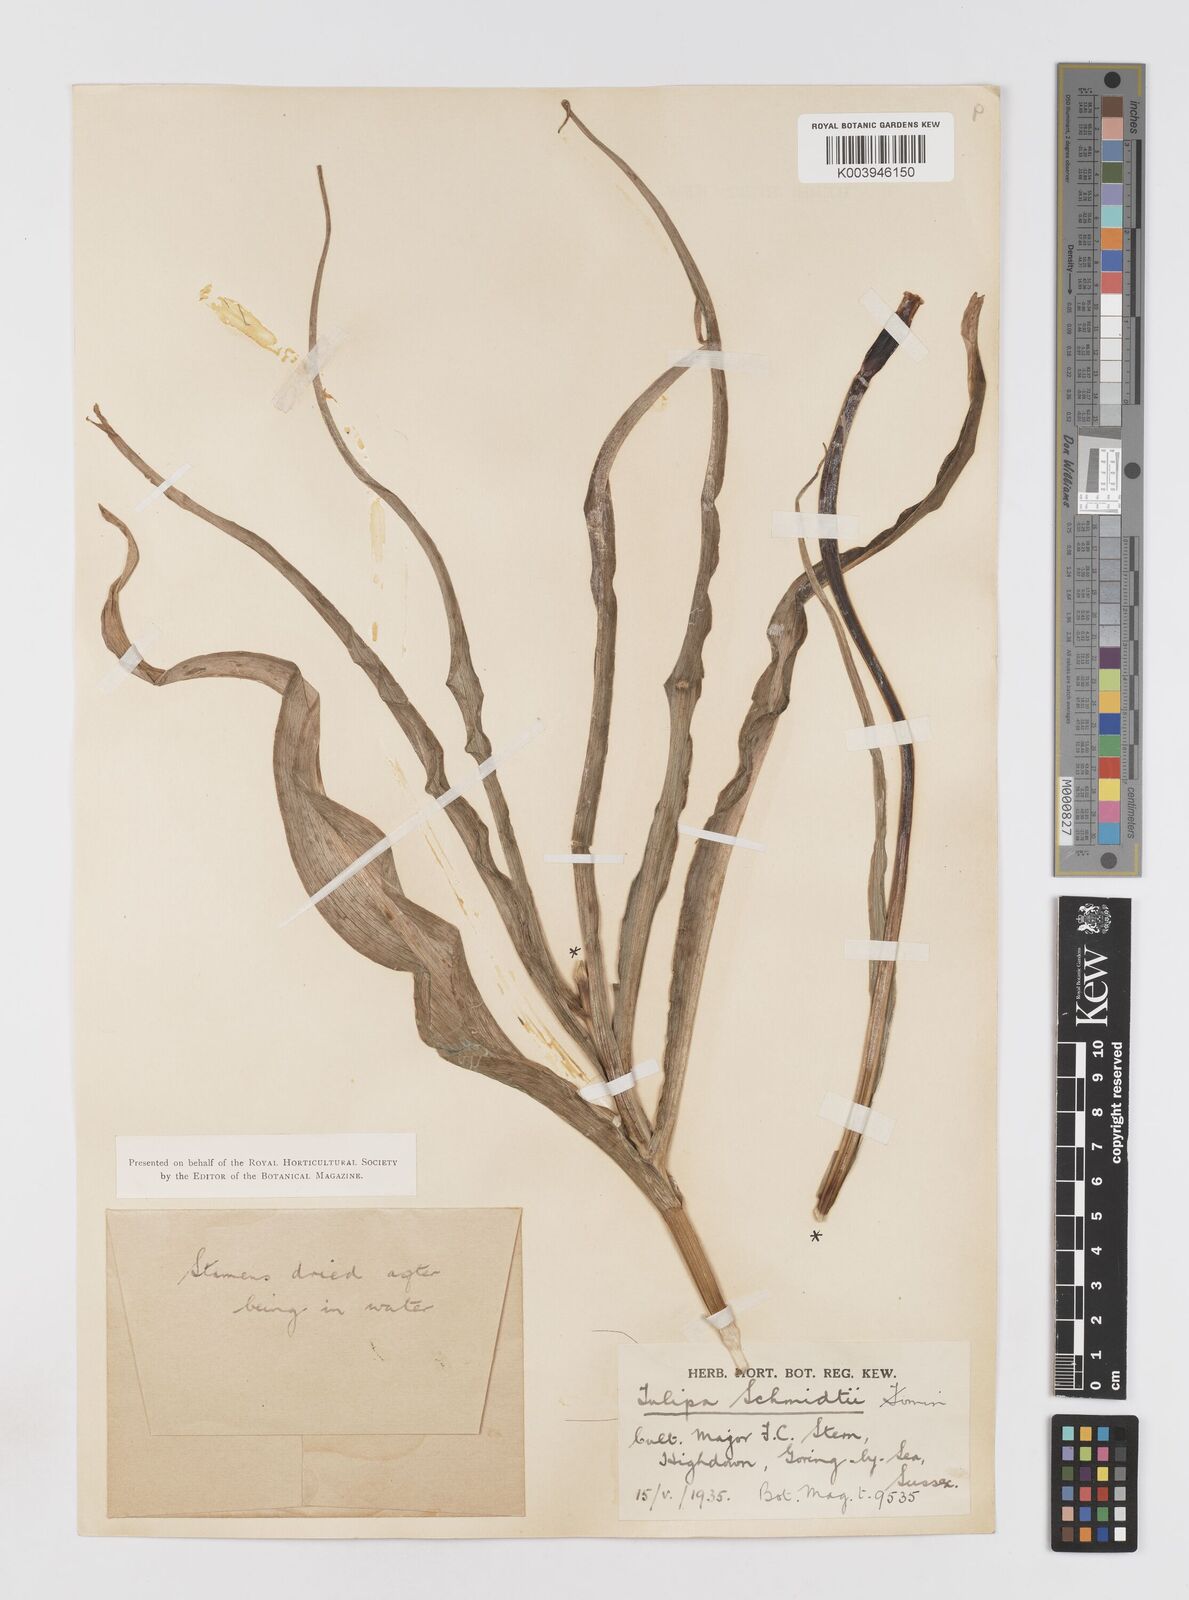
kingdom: Plantae
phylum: Tracheophyta
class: Liliopsida
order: Liliales
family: Liliaceae
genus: Tulipa
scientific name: Tulipa schmidtii
